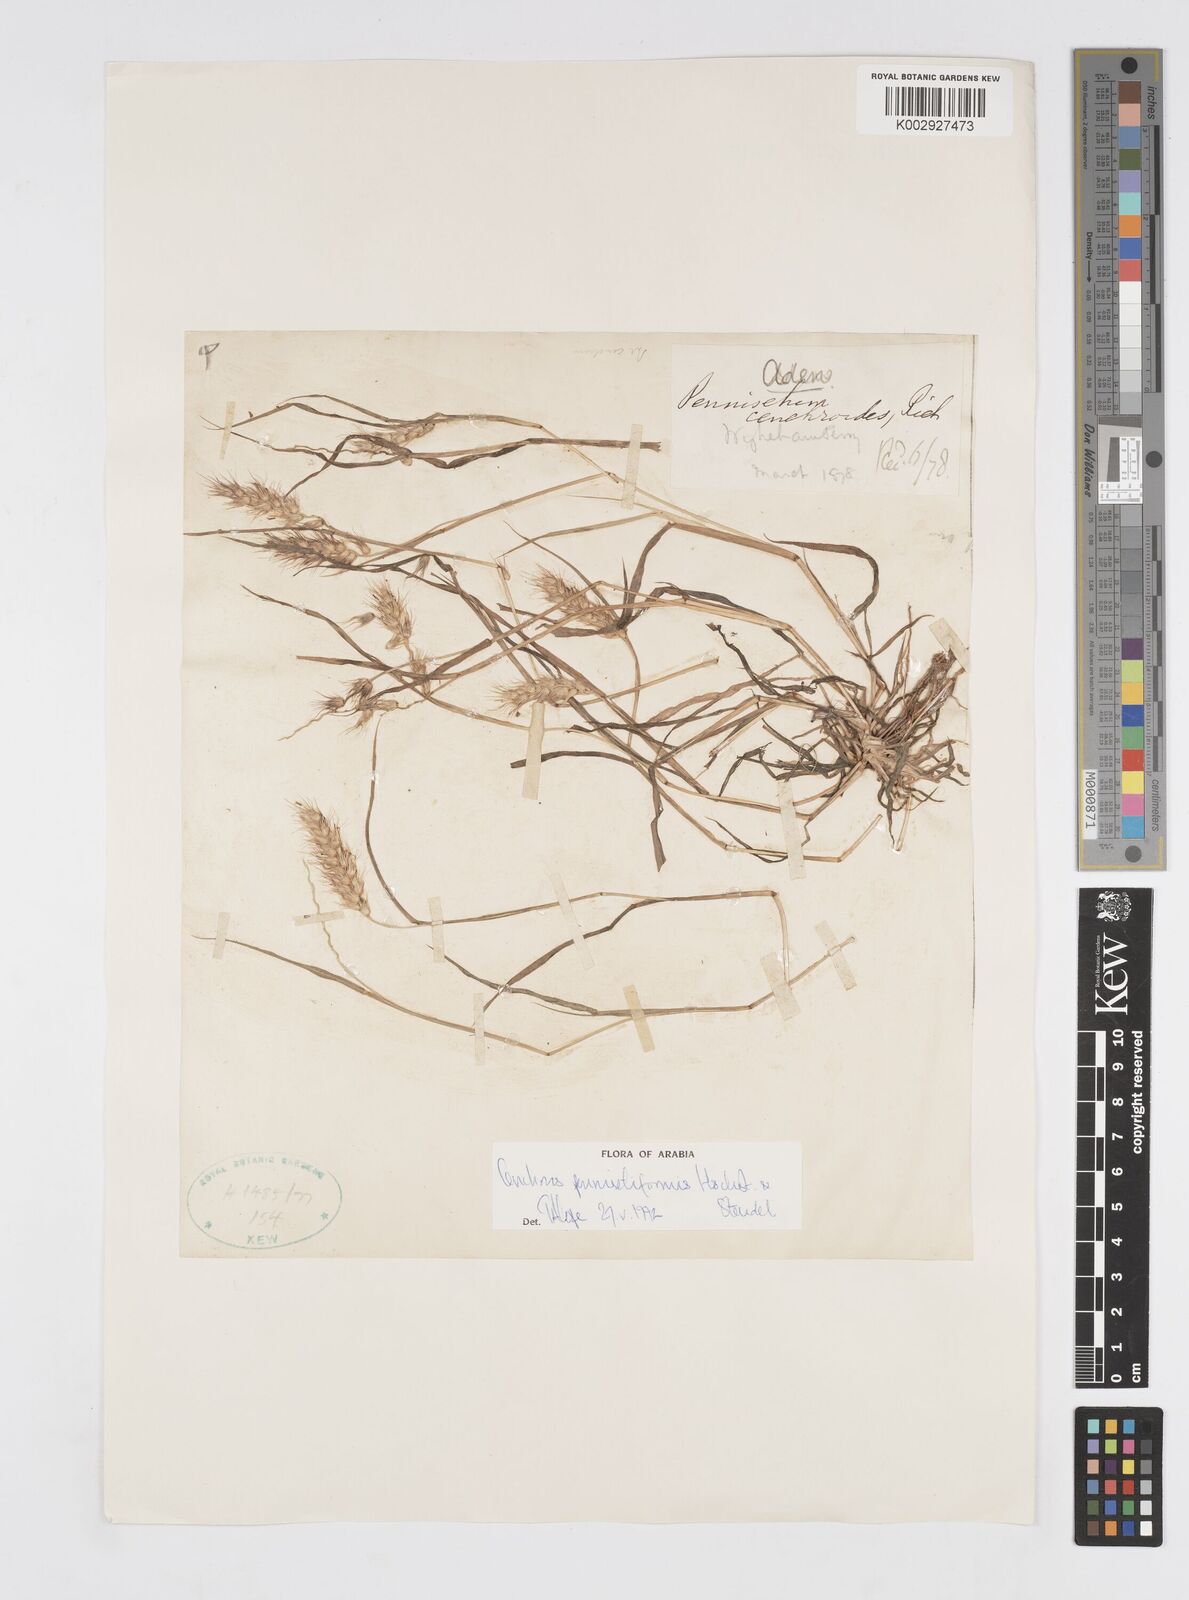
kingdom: Plantae
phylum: Tracheophyta
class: Liliopsida
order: Poales
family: Poaceae
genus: Cenchrus
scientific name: Cenchrus pennisetiformis
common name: Cloncurry
